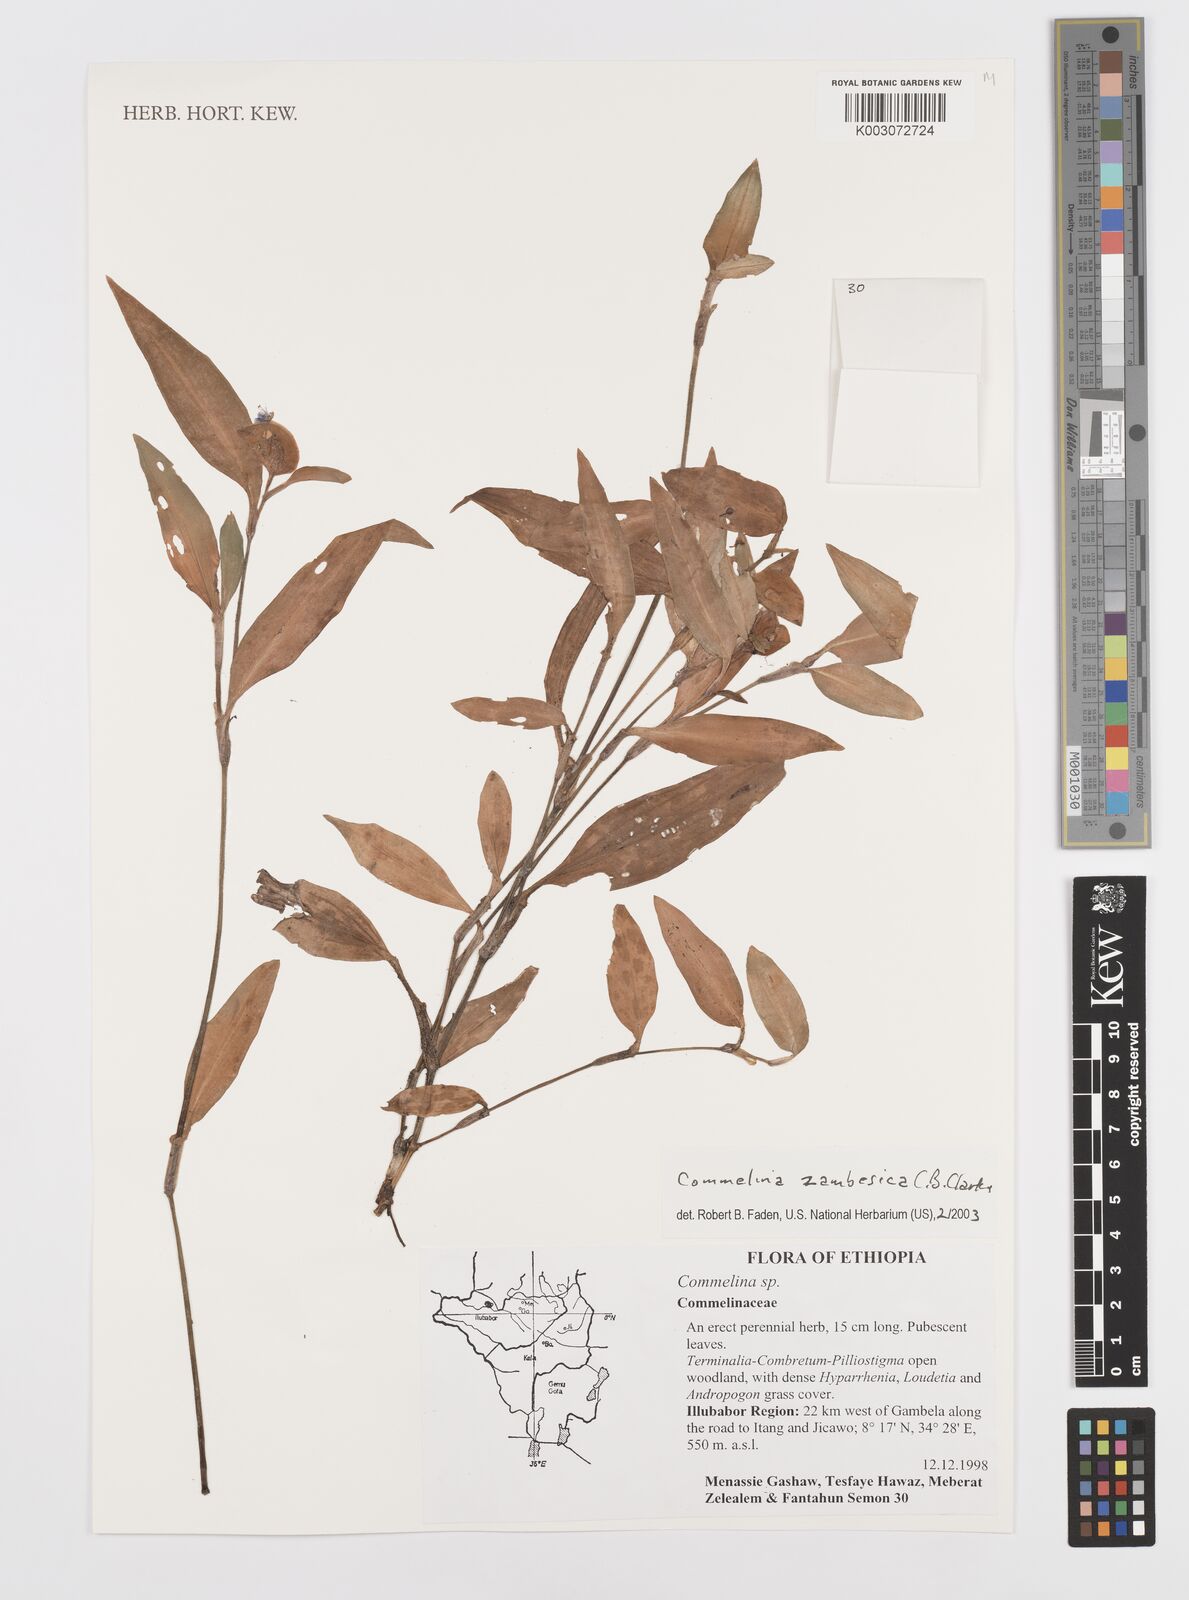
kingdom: Plantae
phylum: Tracheophyta
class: Liliopsida
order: Commelinales
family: Commelinaceae
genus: Commelina
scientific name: Commelina zambesica
